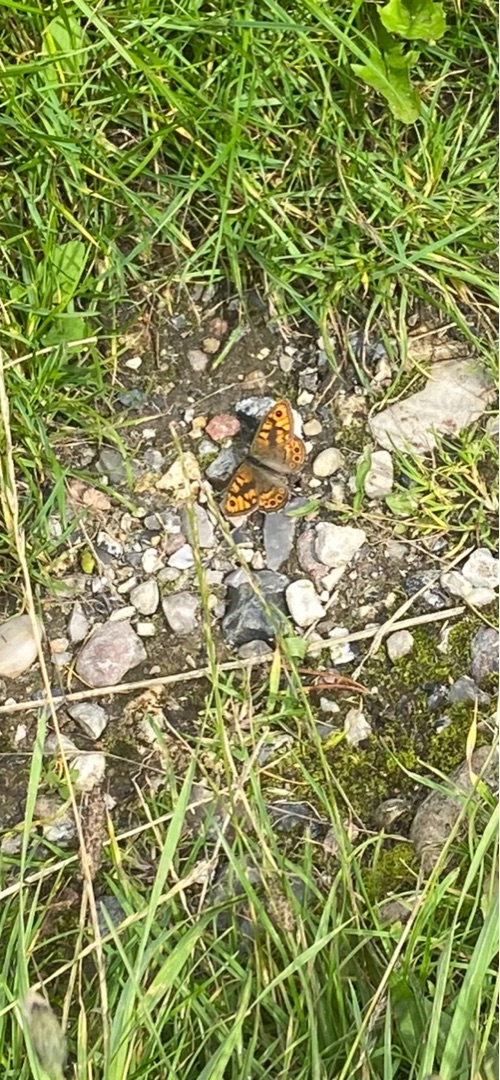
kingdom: Animalia
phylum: Arthropoda
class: Insecta
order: Lepidoptera
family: Nymphalidae
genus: Pararge
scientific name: Pararge Lasiommata megera
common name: Vejrandøje
